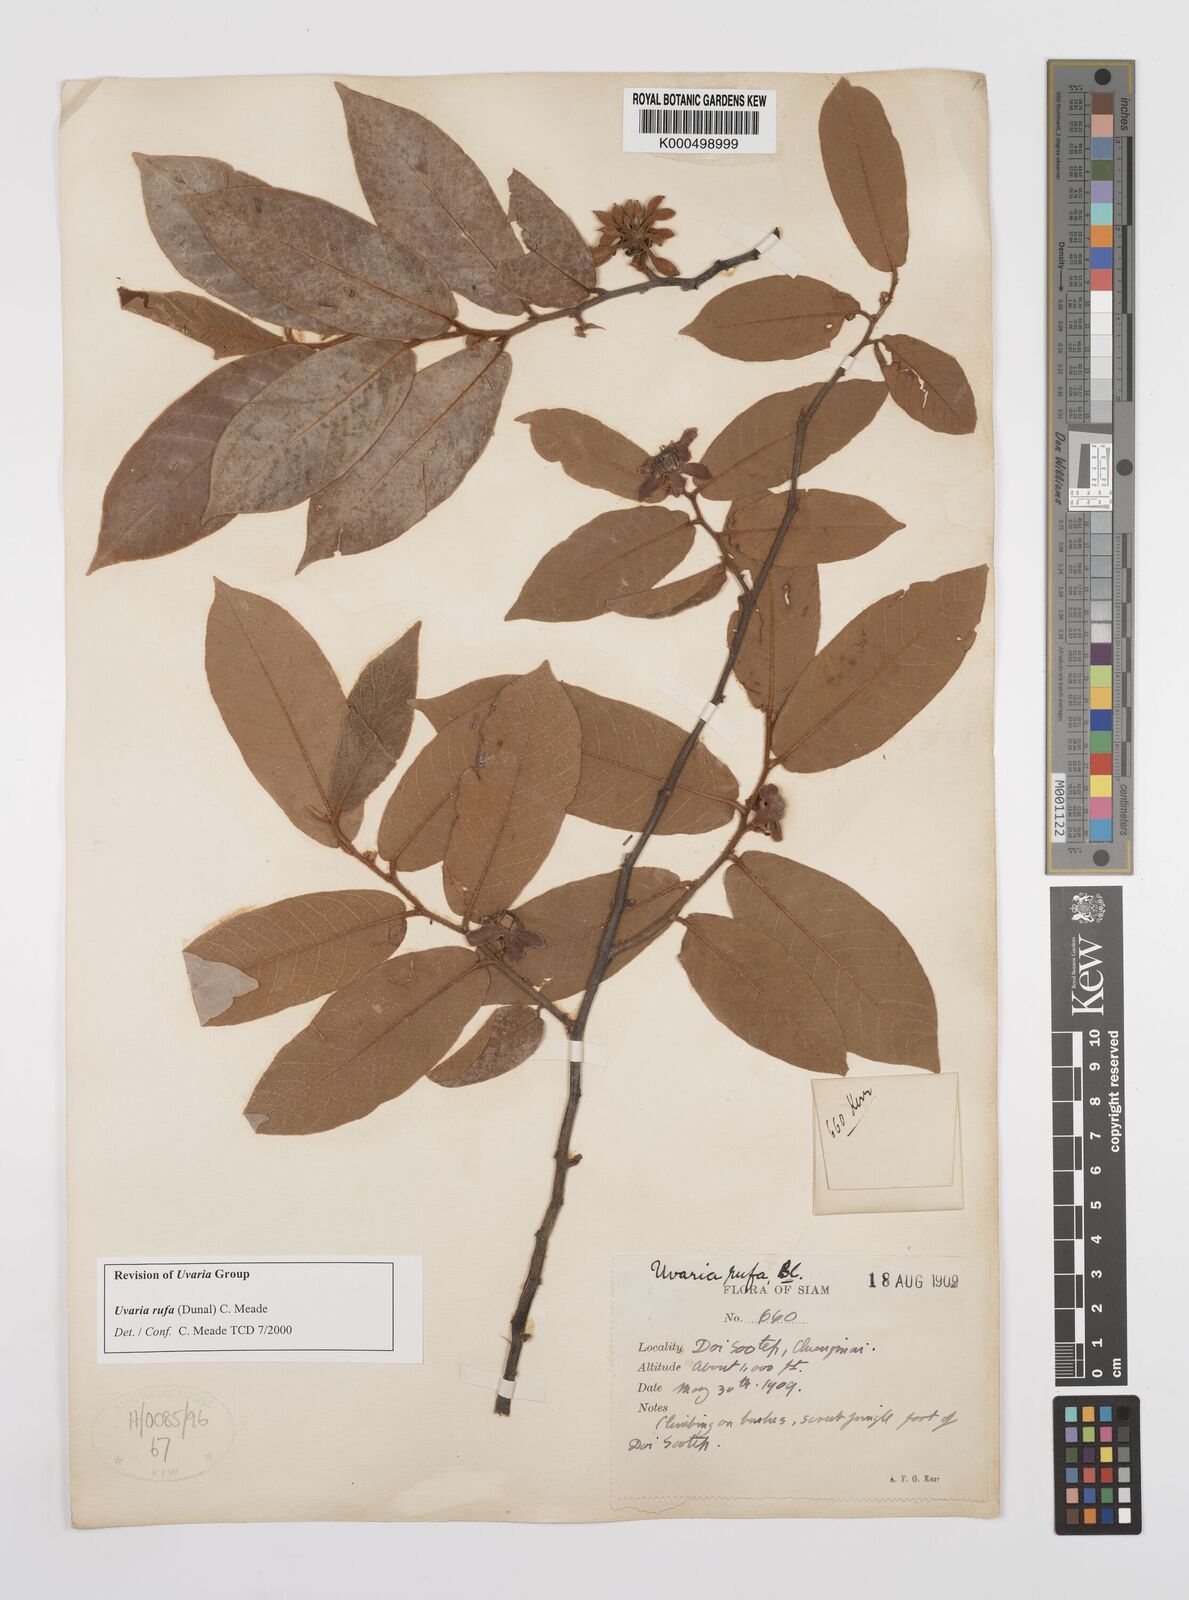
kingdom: Plantae
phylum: Tracheophyta
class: Magnoliopsida
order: Magnoliales
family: Annonaceae
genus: Uvaria
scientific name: Uvaria rufa
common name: Torres strait scrambler
